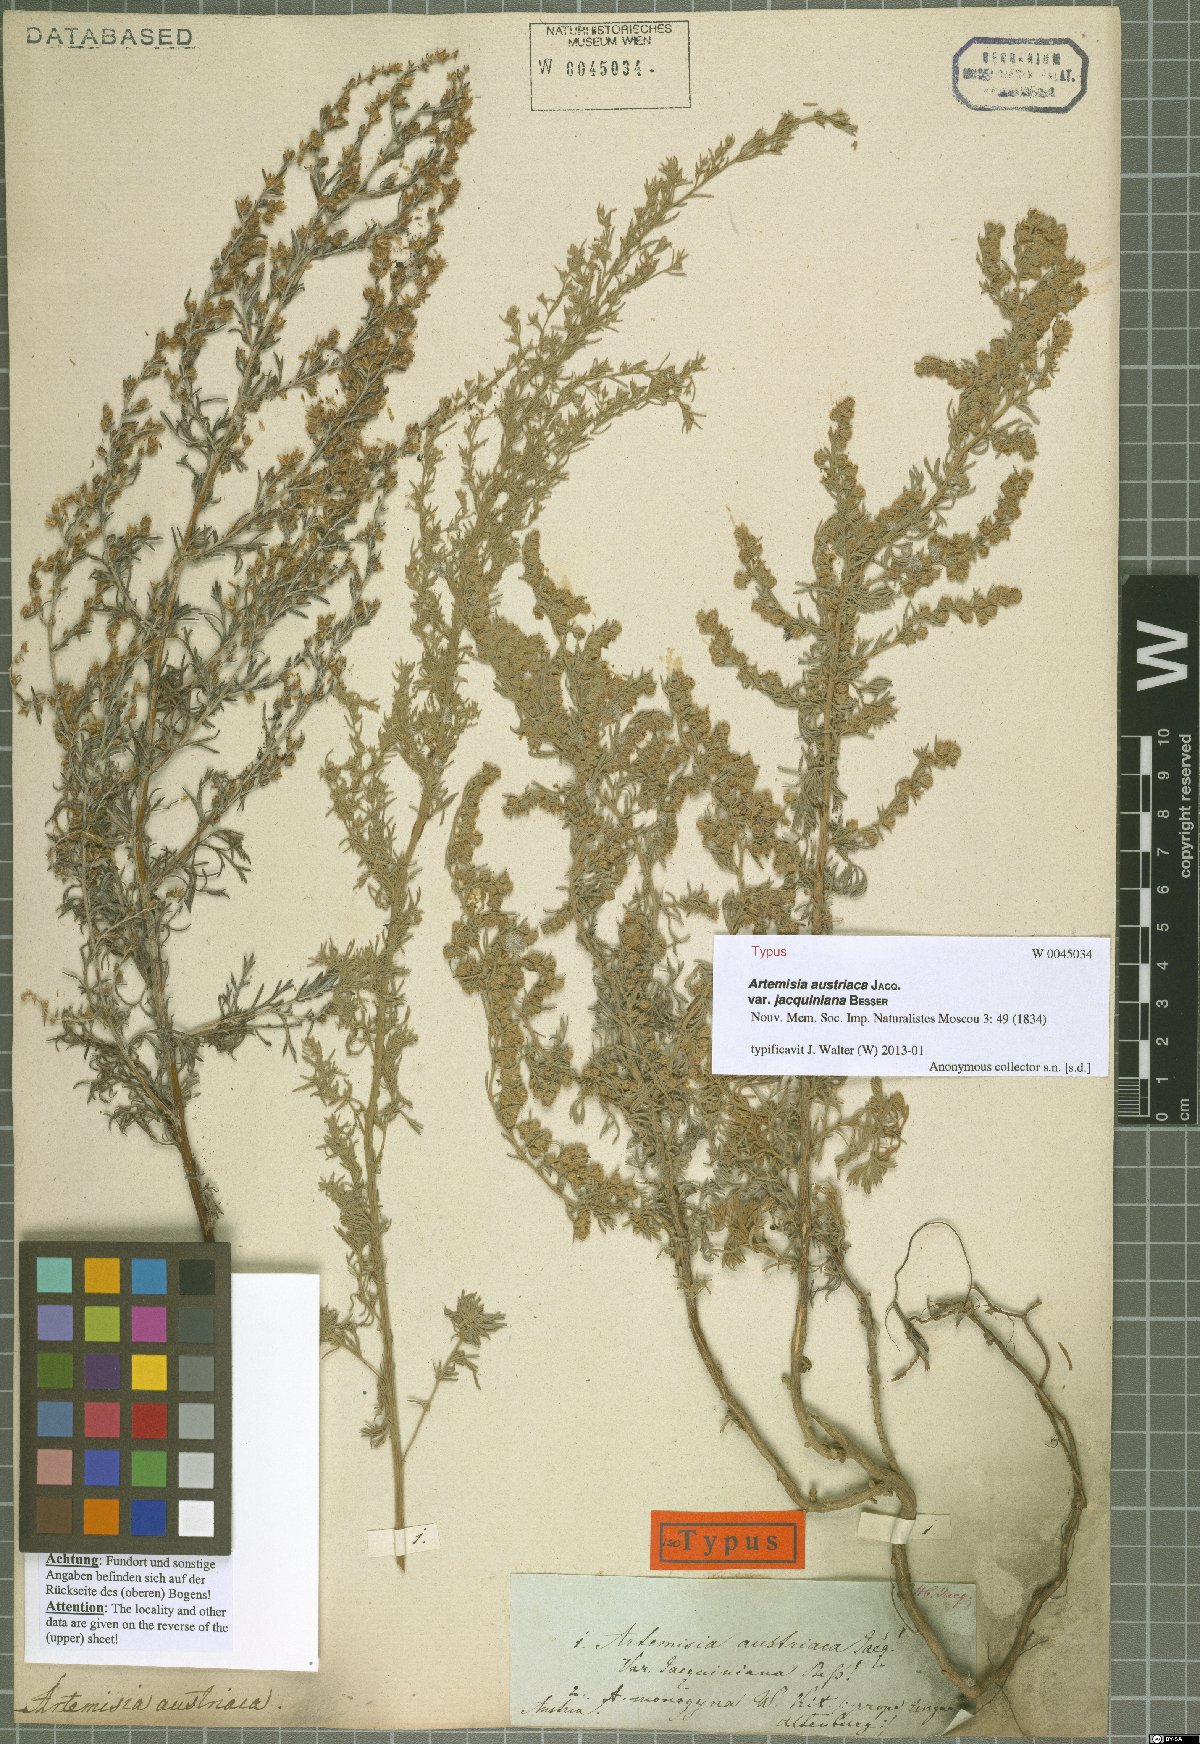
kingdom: Plantae
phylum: Tracheophyta
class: Magnoliopsida
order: Asterales
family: Asteraceae
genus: Artemisia
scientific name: Artemisia austriaca
